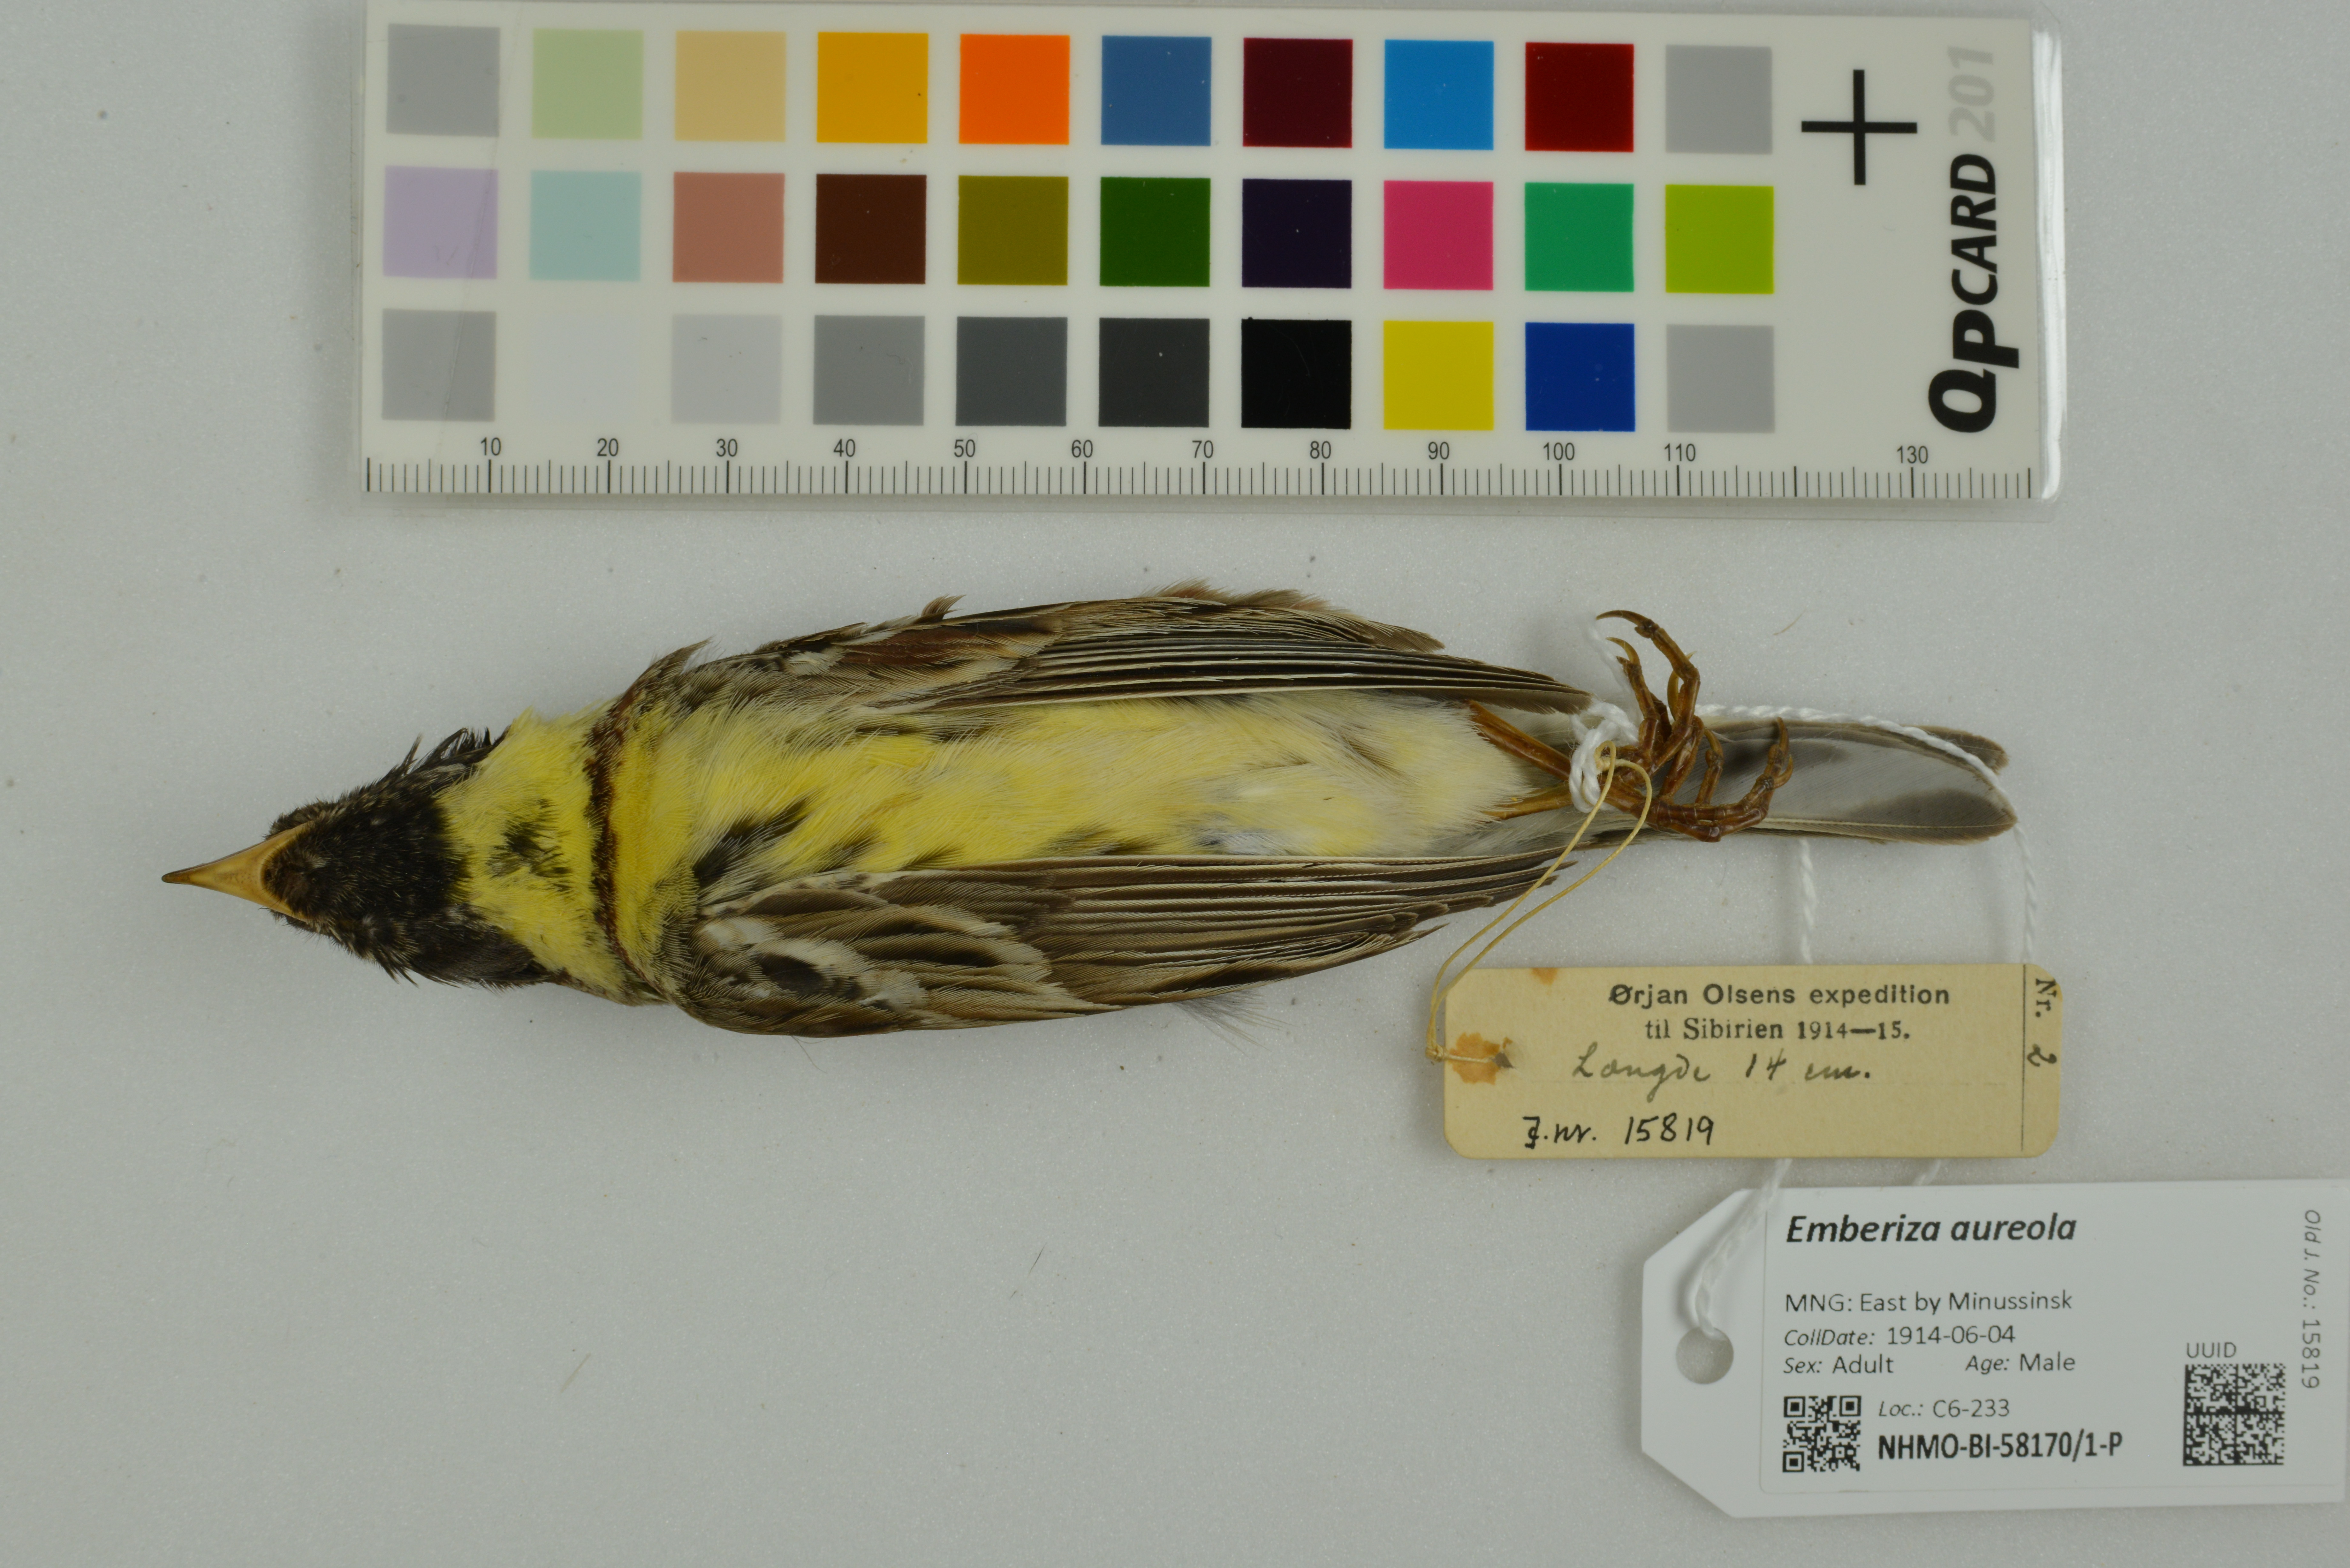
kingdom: Animalia
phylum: Chordata
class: Aves
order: Passeriformes
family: Emberizidae
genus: Emberiza
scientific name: Emberiza aureola
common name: Yellow-breasted bunting
